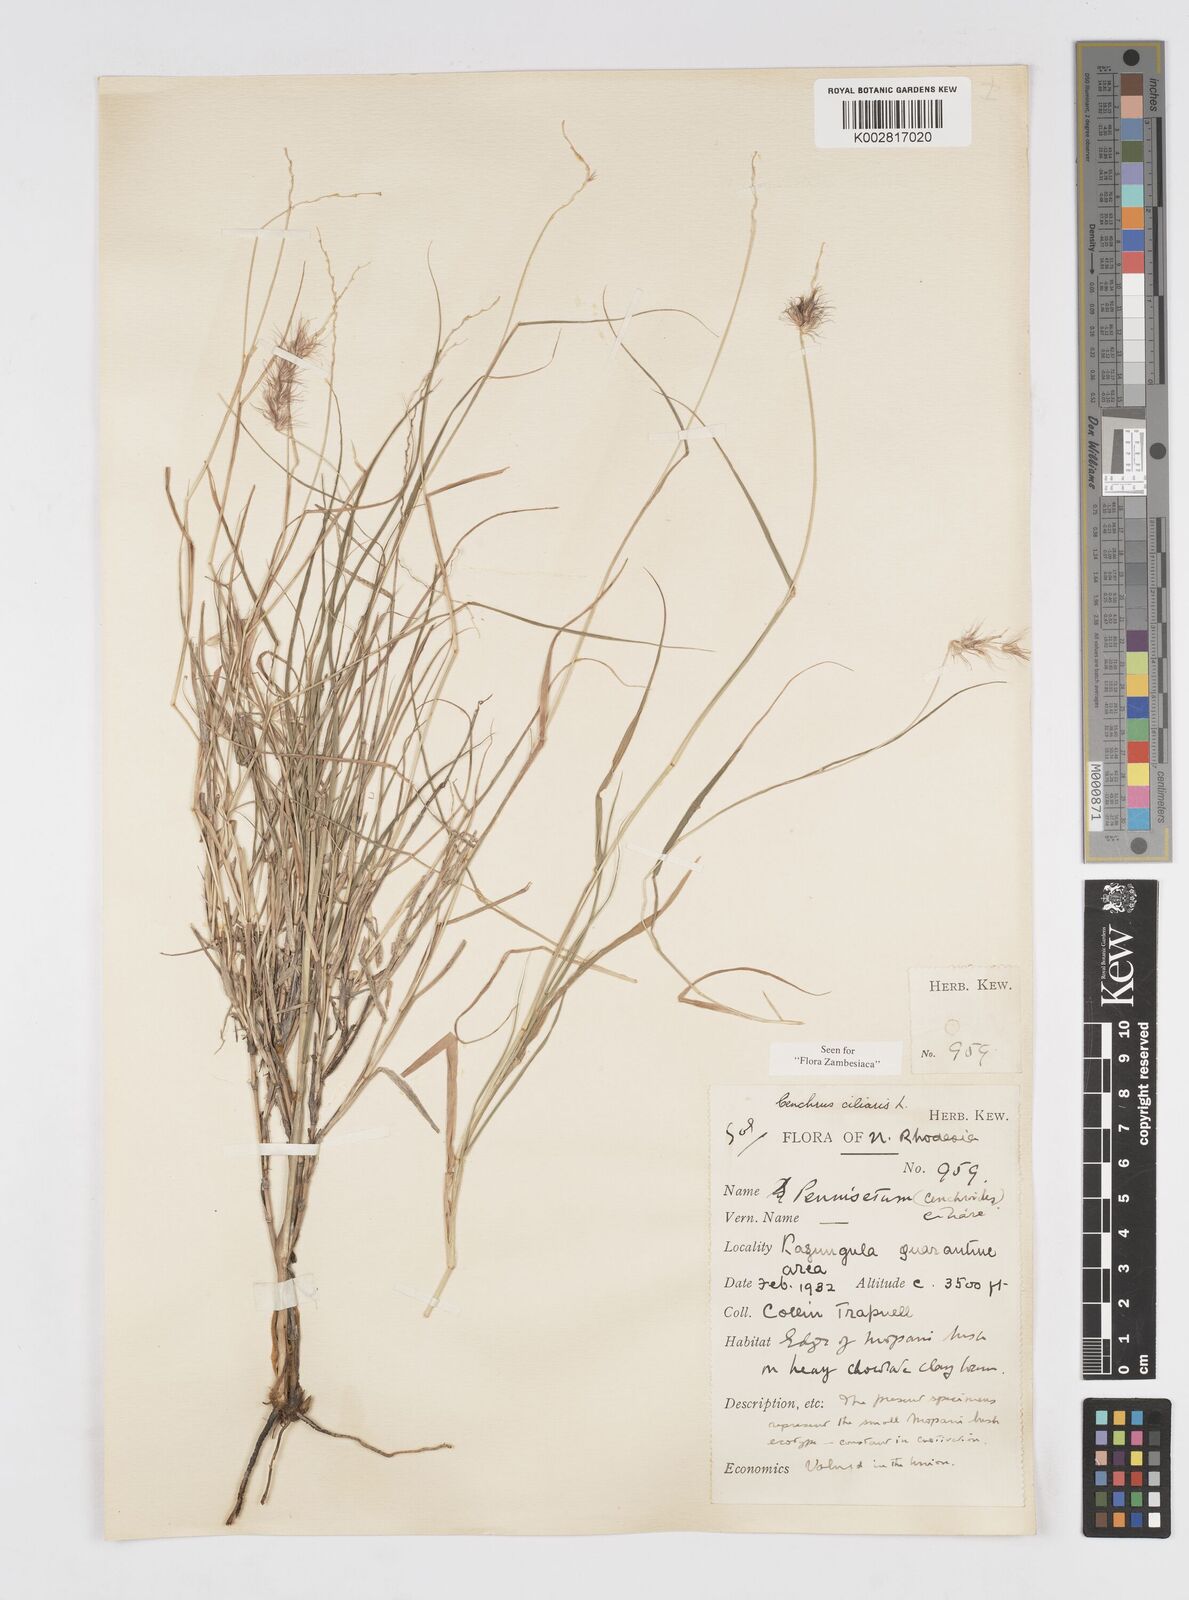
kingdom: Plantae
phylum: Tracheophyta
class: Liliopsida
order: Poales
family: Poaceae
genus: Cenchrus
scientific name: Cenchrus ciliaris
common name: Buffelgrass
